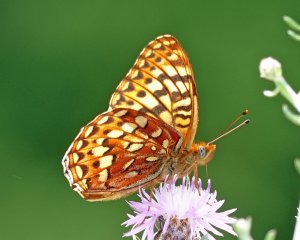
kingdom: Animalia
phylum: Arthropoda
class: Insecta
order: Lepidoptera
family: Nymphalidae
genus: Speyeria
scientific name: Speyeria hydaspe
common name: Hydaspe Fritillary
